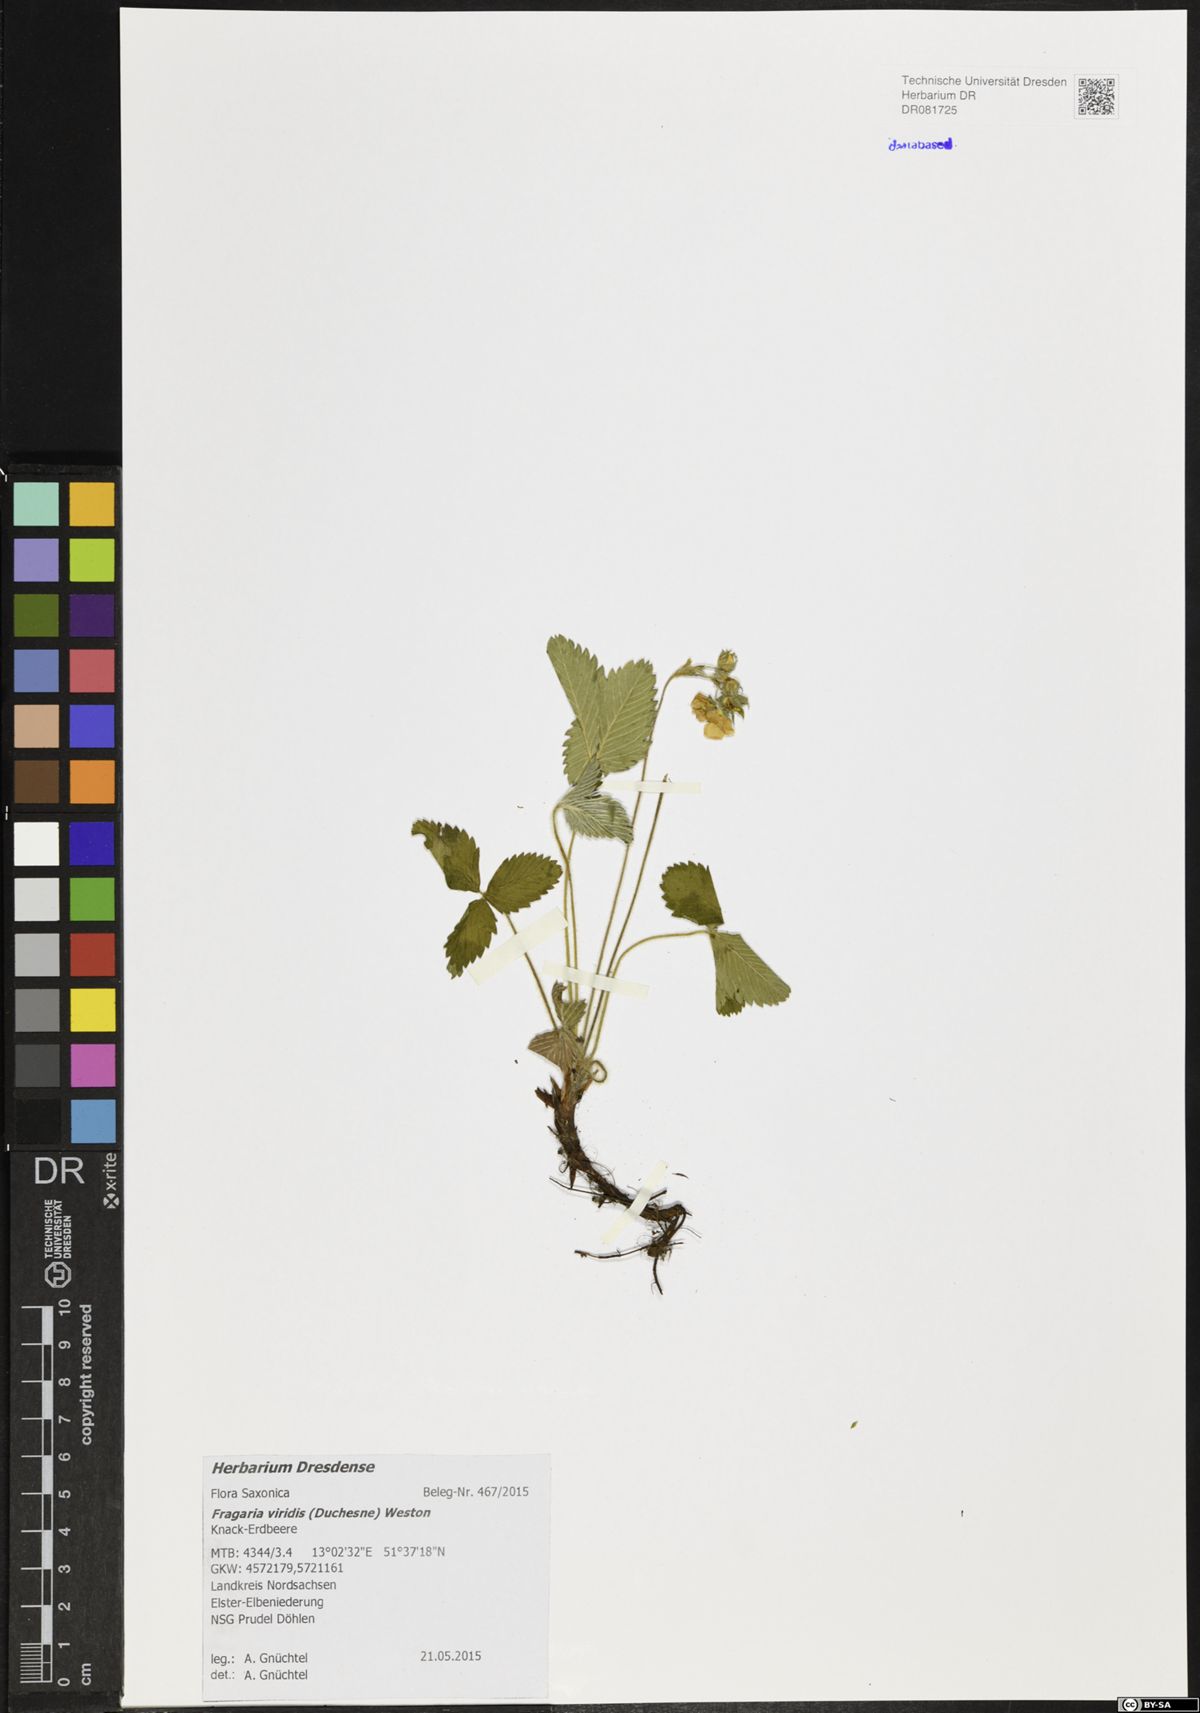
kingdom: Plantae
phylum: Tracheophyta
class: Magnoliopsida
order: Rosales
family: Rosaceae
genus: Fragaria
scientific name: Fragaria viridis
